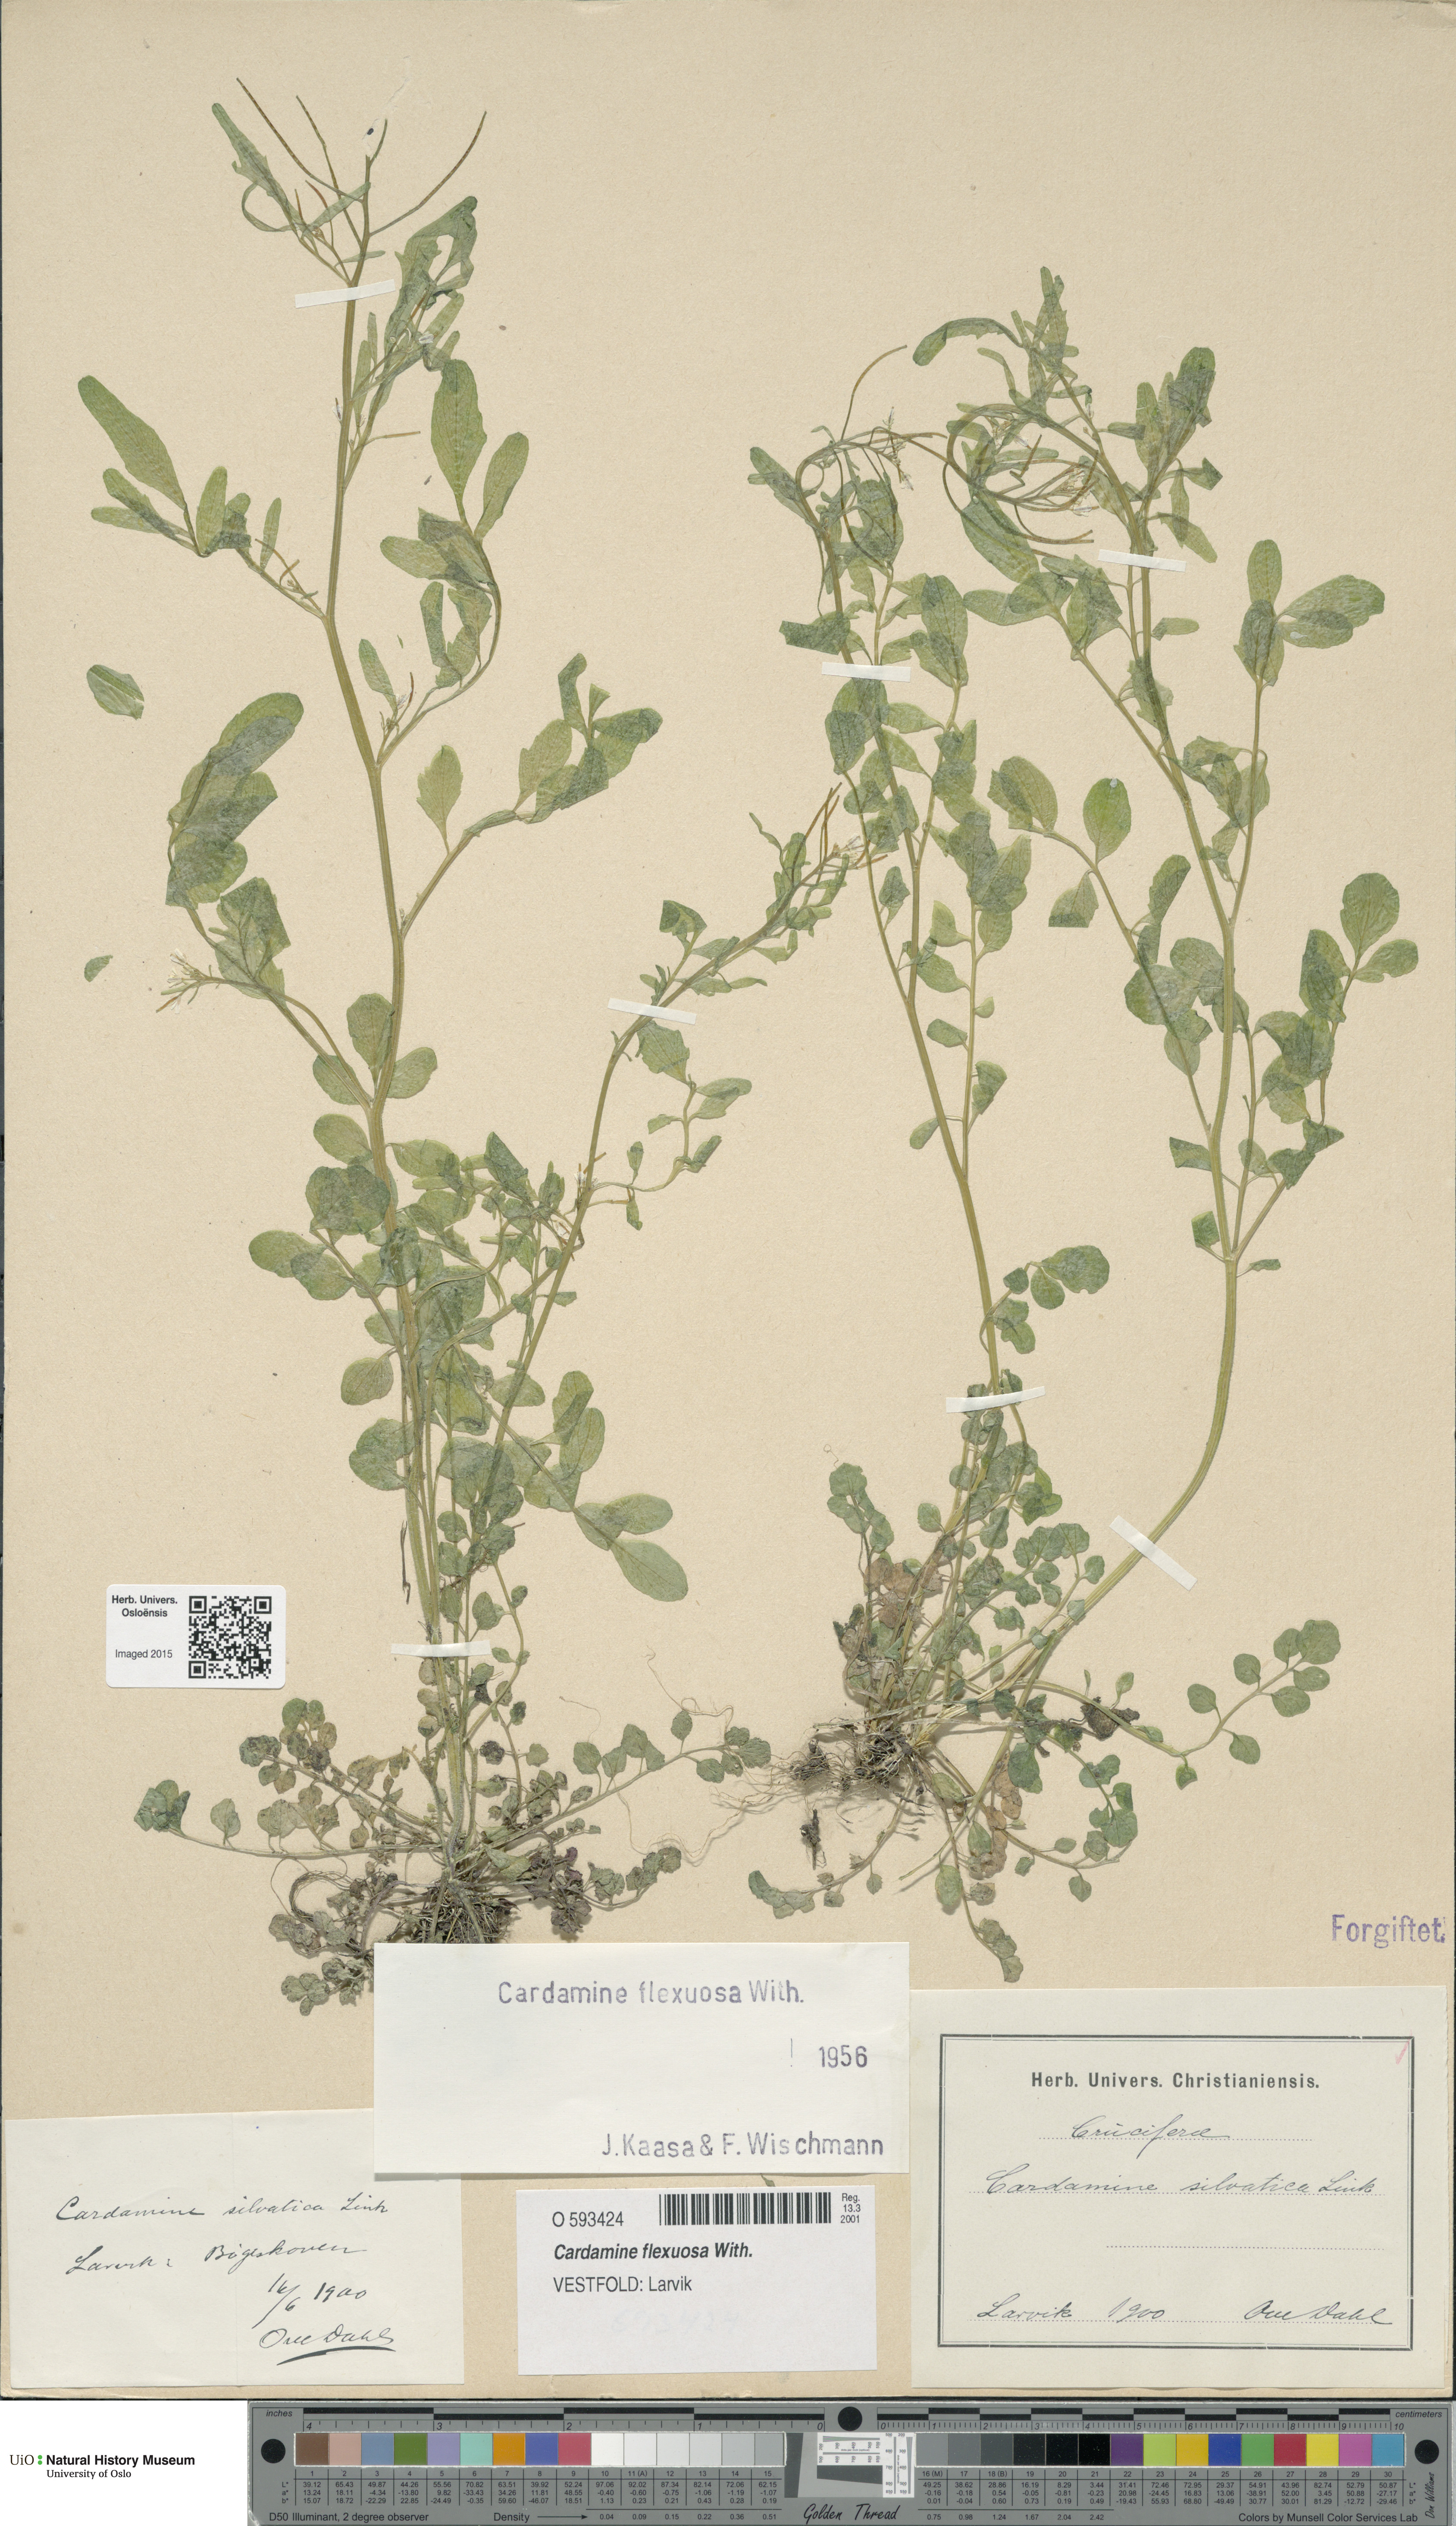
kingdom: Plantae
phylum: Tracheophyta
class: Magnoliopsida
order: Brassicales
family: Brassicaceae
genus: Cardamine
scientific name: Cardamine flexuosa
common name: Woodland bittercress
